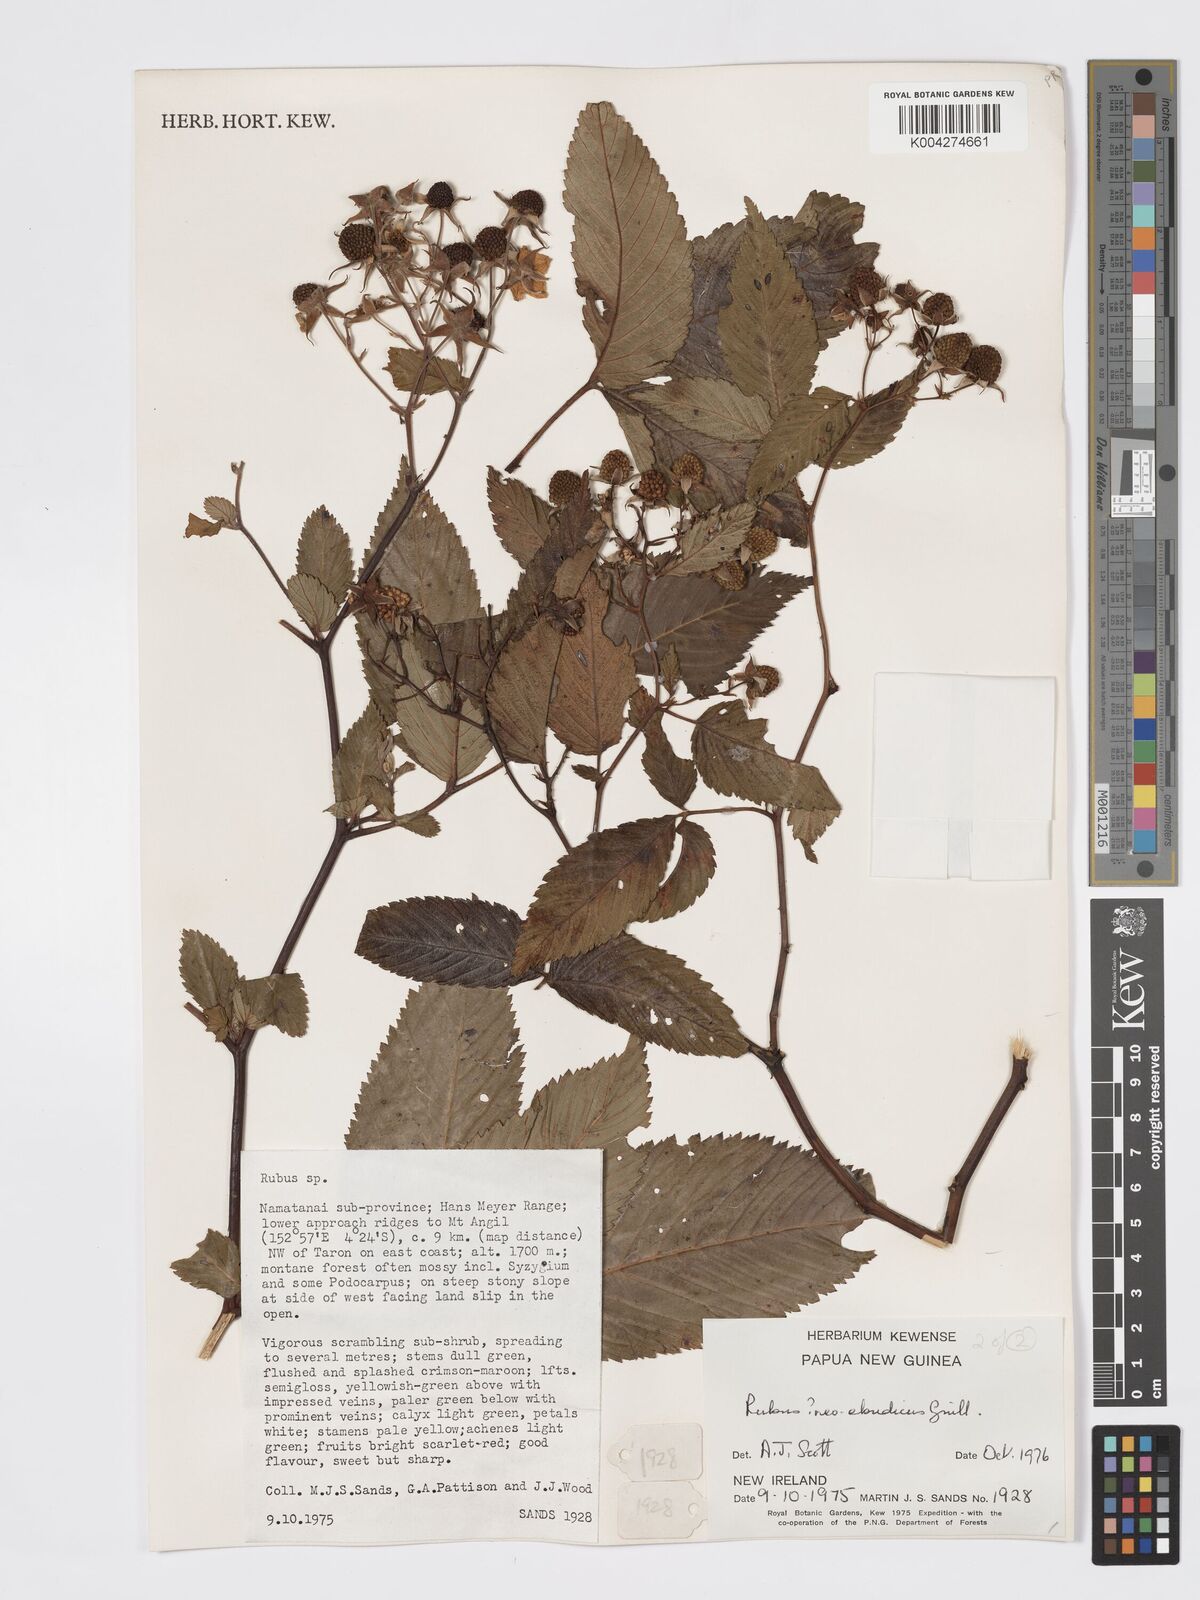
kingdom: Plantae
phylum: Tracheophyta
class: Magnoliopsida
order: Rosales
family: Rosaceae
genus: Rubus
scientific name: Rubus neoebudicus
